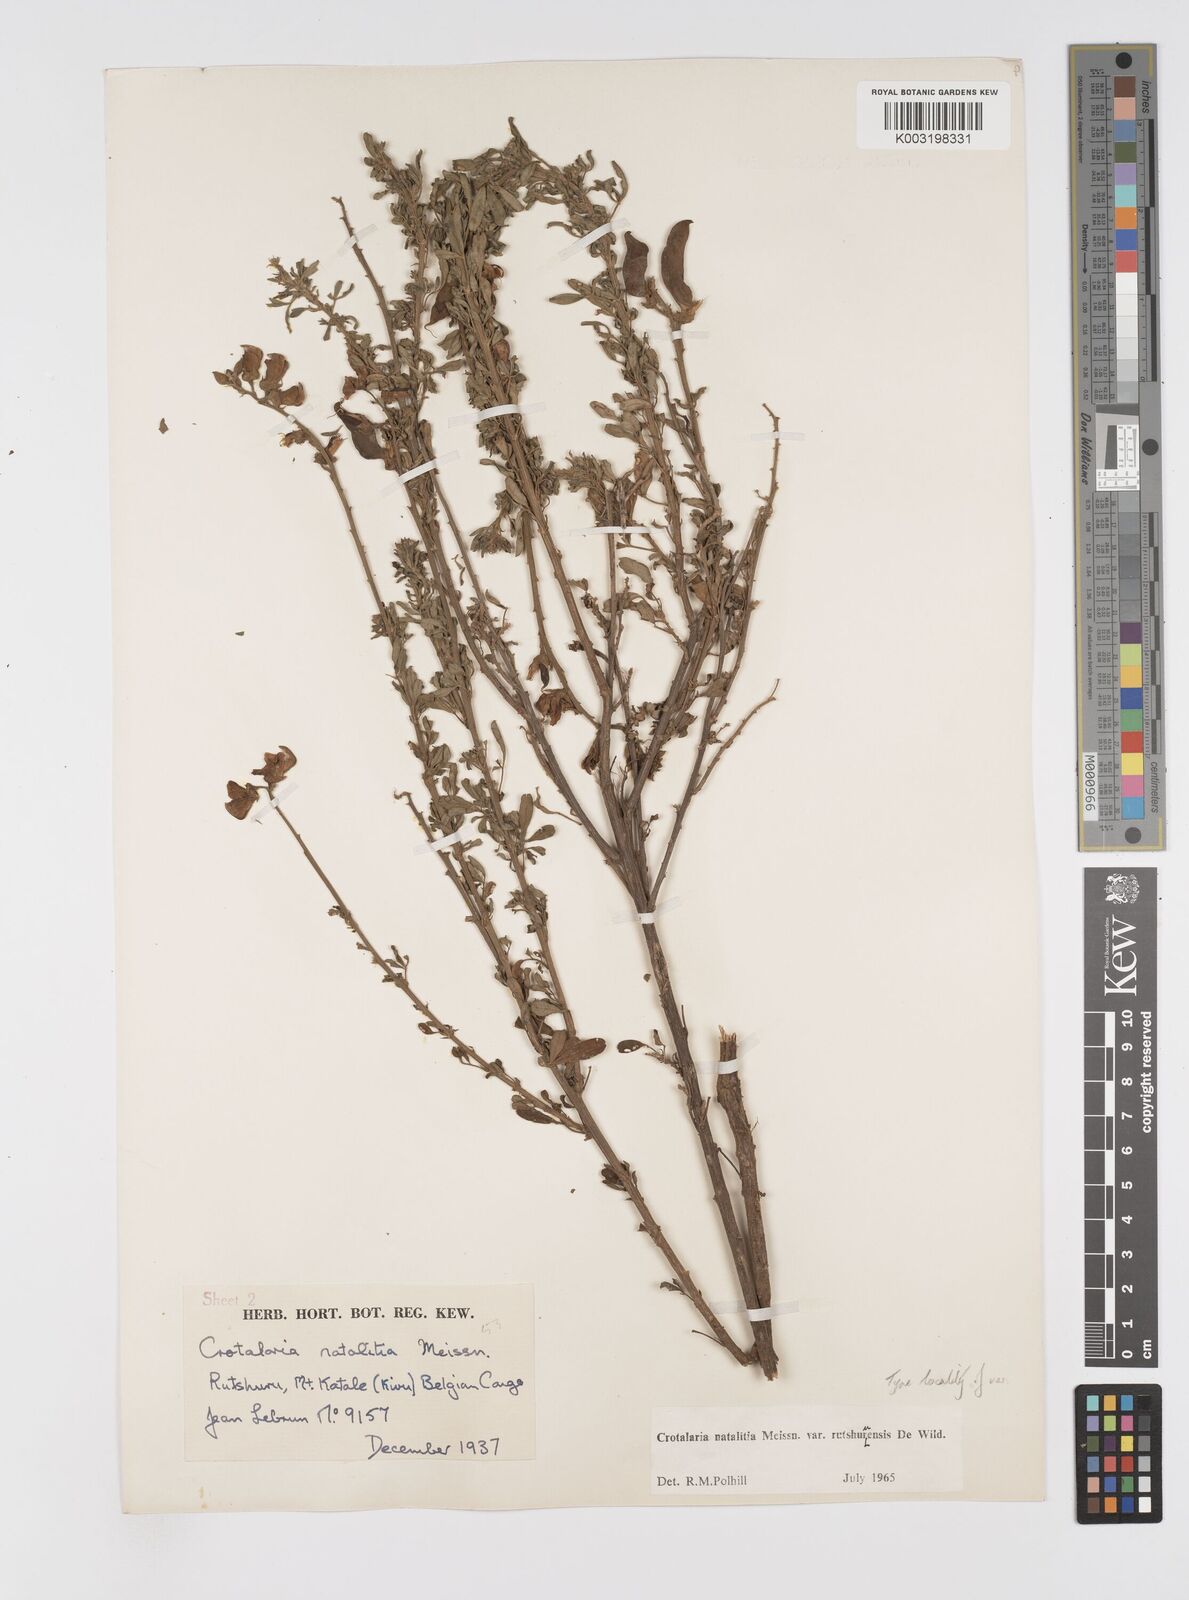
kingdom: Plantae
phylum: Tracheophyta
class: Magnoliopsida
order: Fabales
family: Fabaceae
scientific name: Fabaceae
